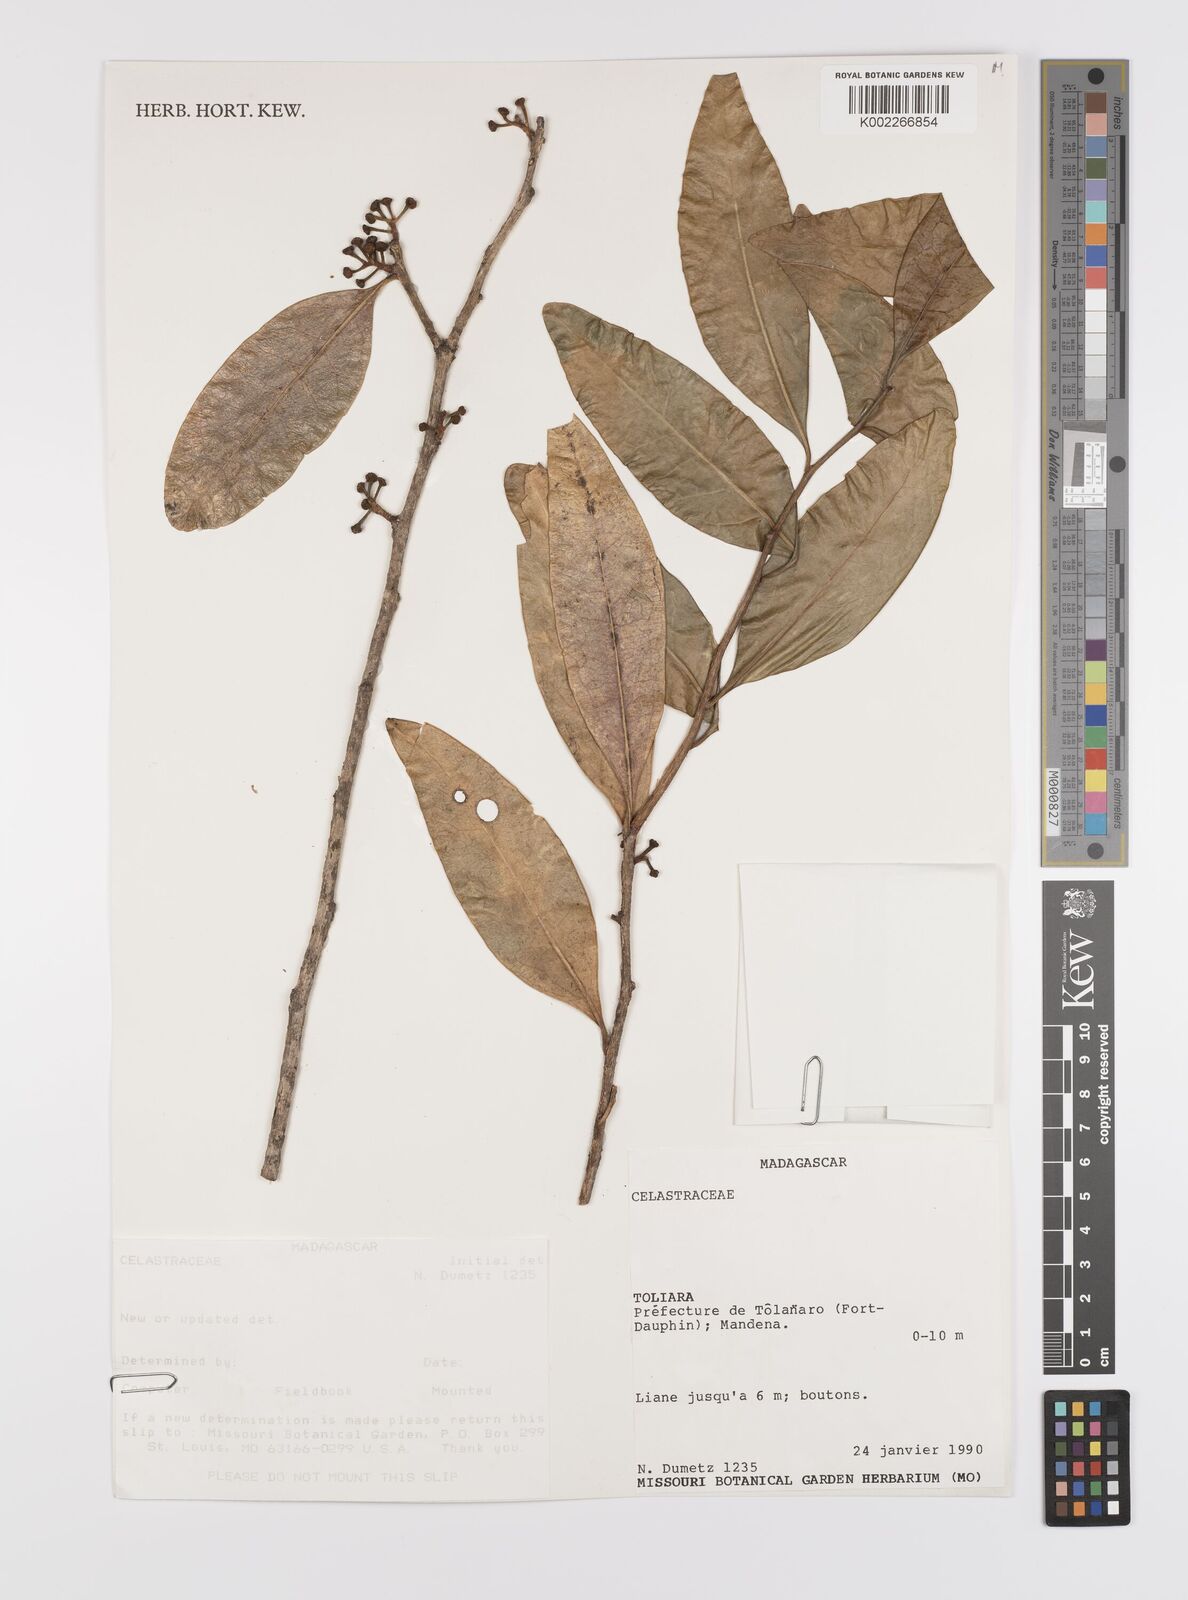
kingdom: Plantae
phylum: Tracheophyta
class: Magnoliopsida
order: Celastrales
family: Celastraceae
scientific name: Celastraceae
